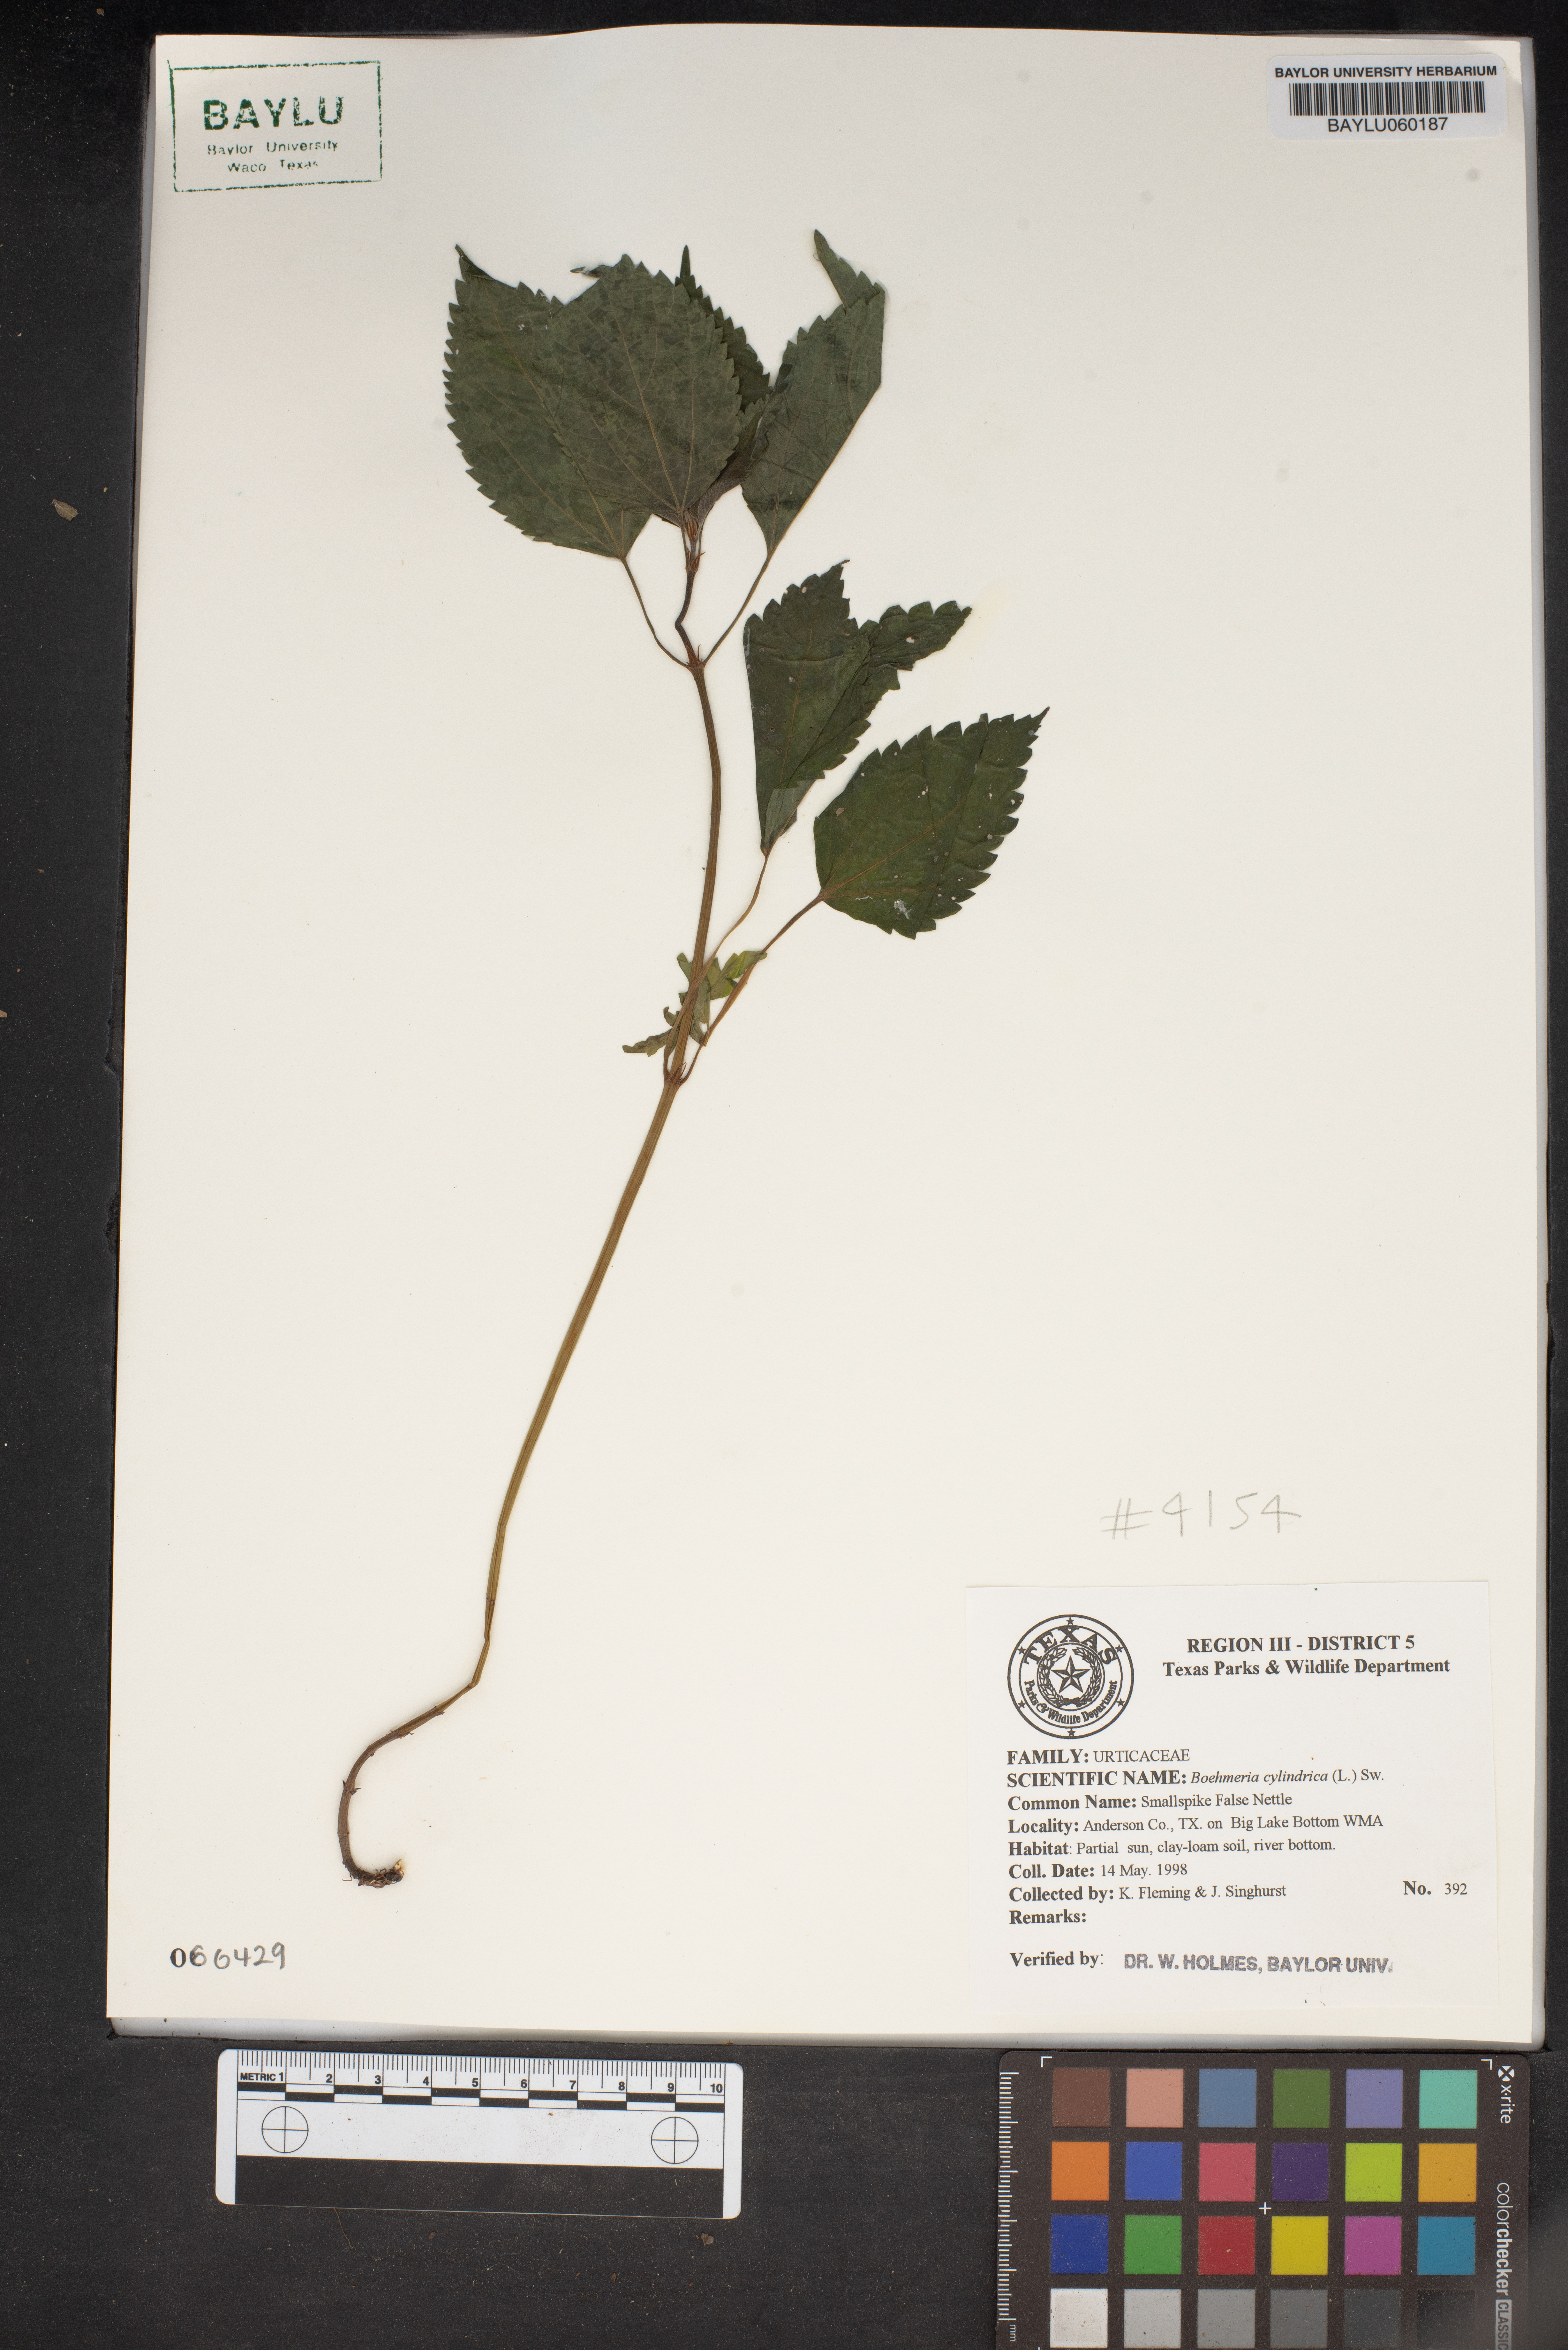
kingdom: Plantae
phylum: Tracheophyta
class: Magnoliopsida
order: Rosales
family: Urticaceae
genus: Boehmeria
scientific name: Boehmeria cylindrica
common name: Bog-hemp
